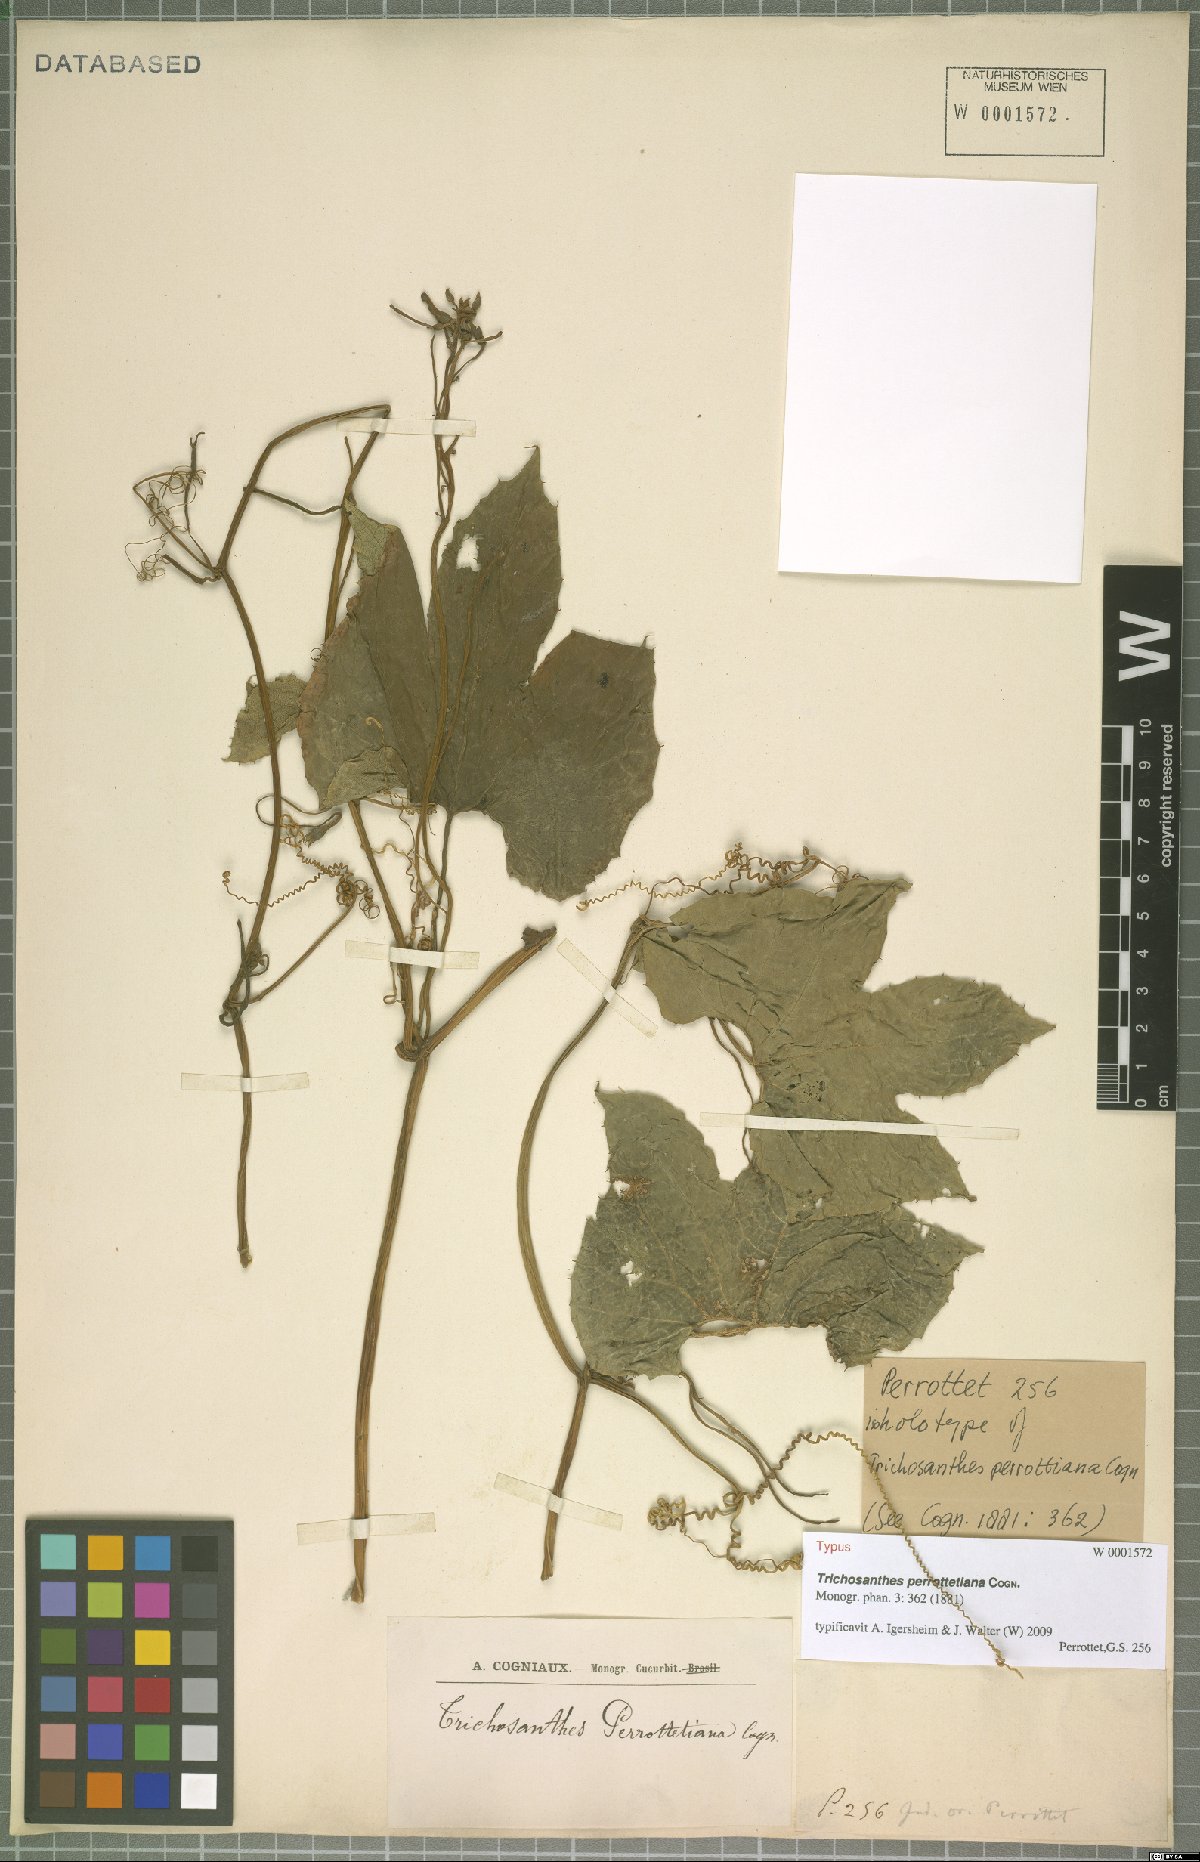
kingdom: Plantae
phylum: Tracheophyta
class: Magnoliopsida
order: Cucurbitales
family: Cucurbitaceae
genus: Trichosanthes
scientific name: Trichosanthes cucumerina
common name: Snakegourd
